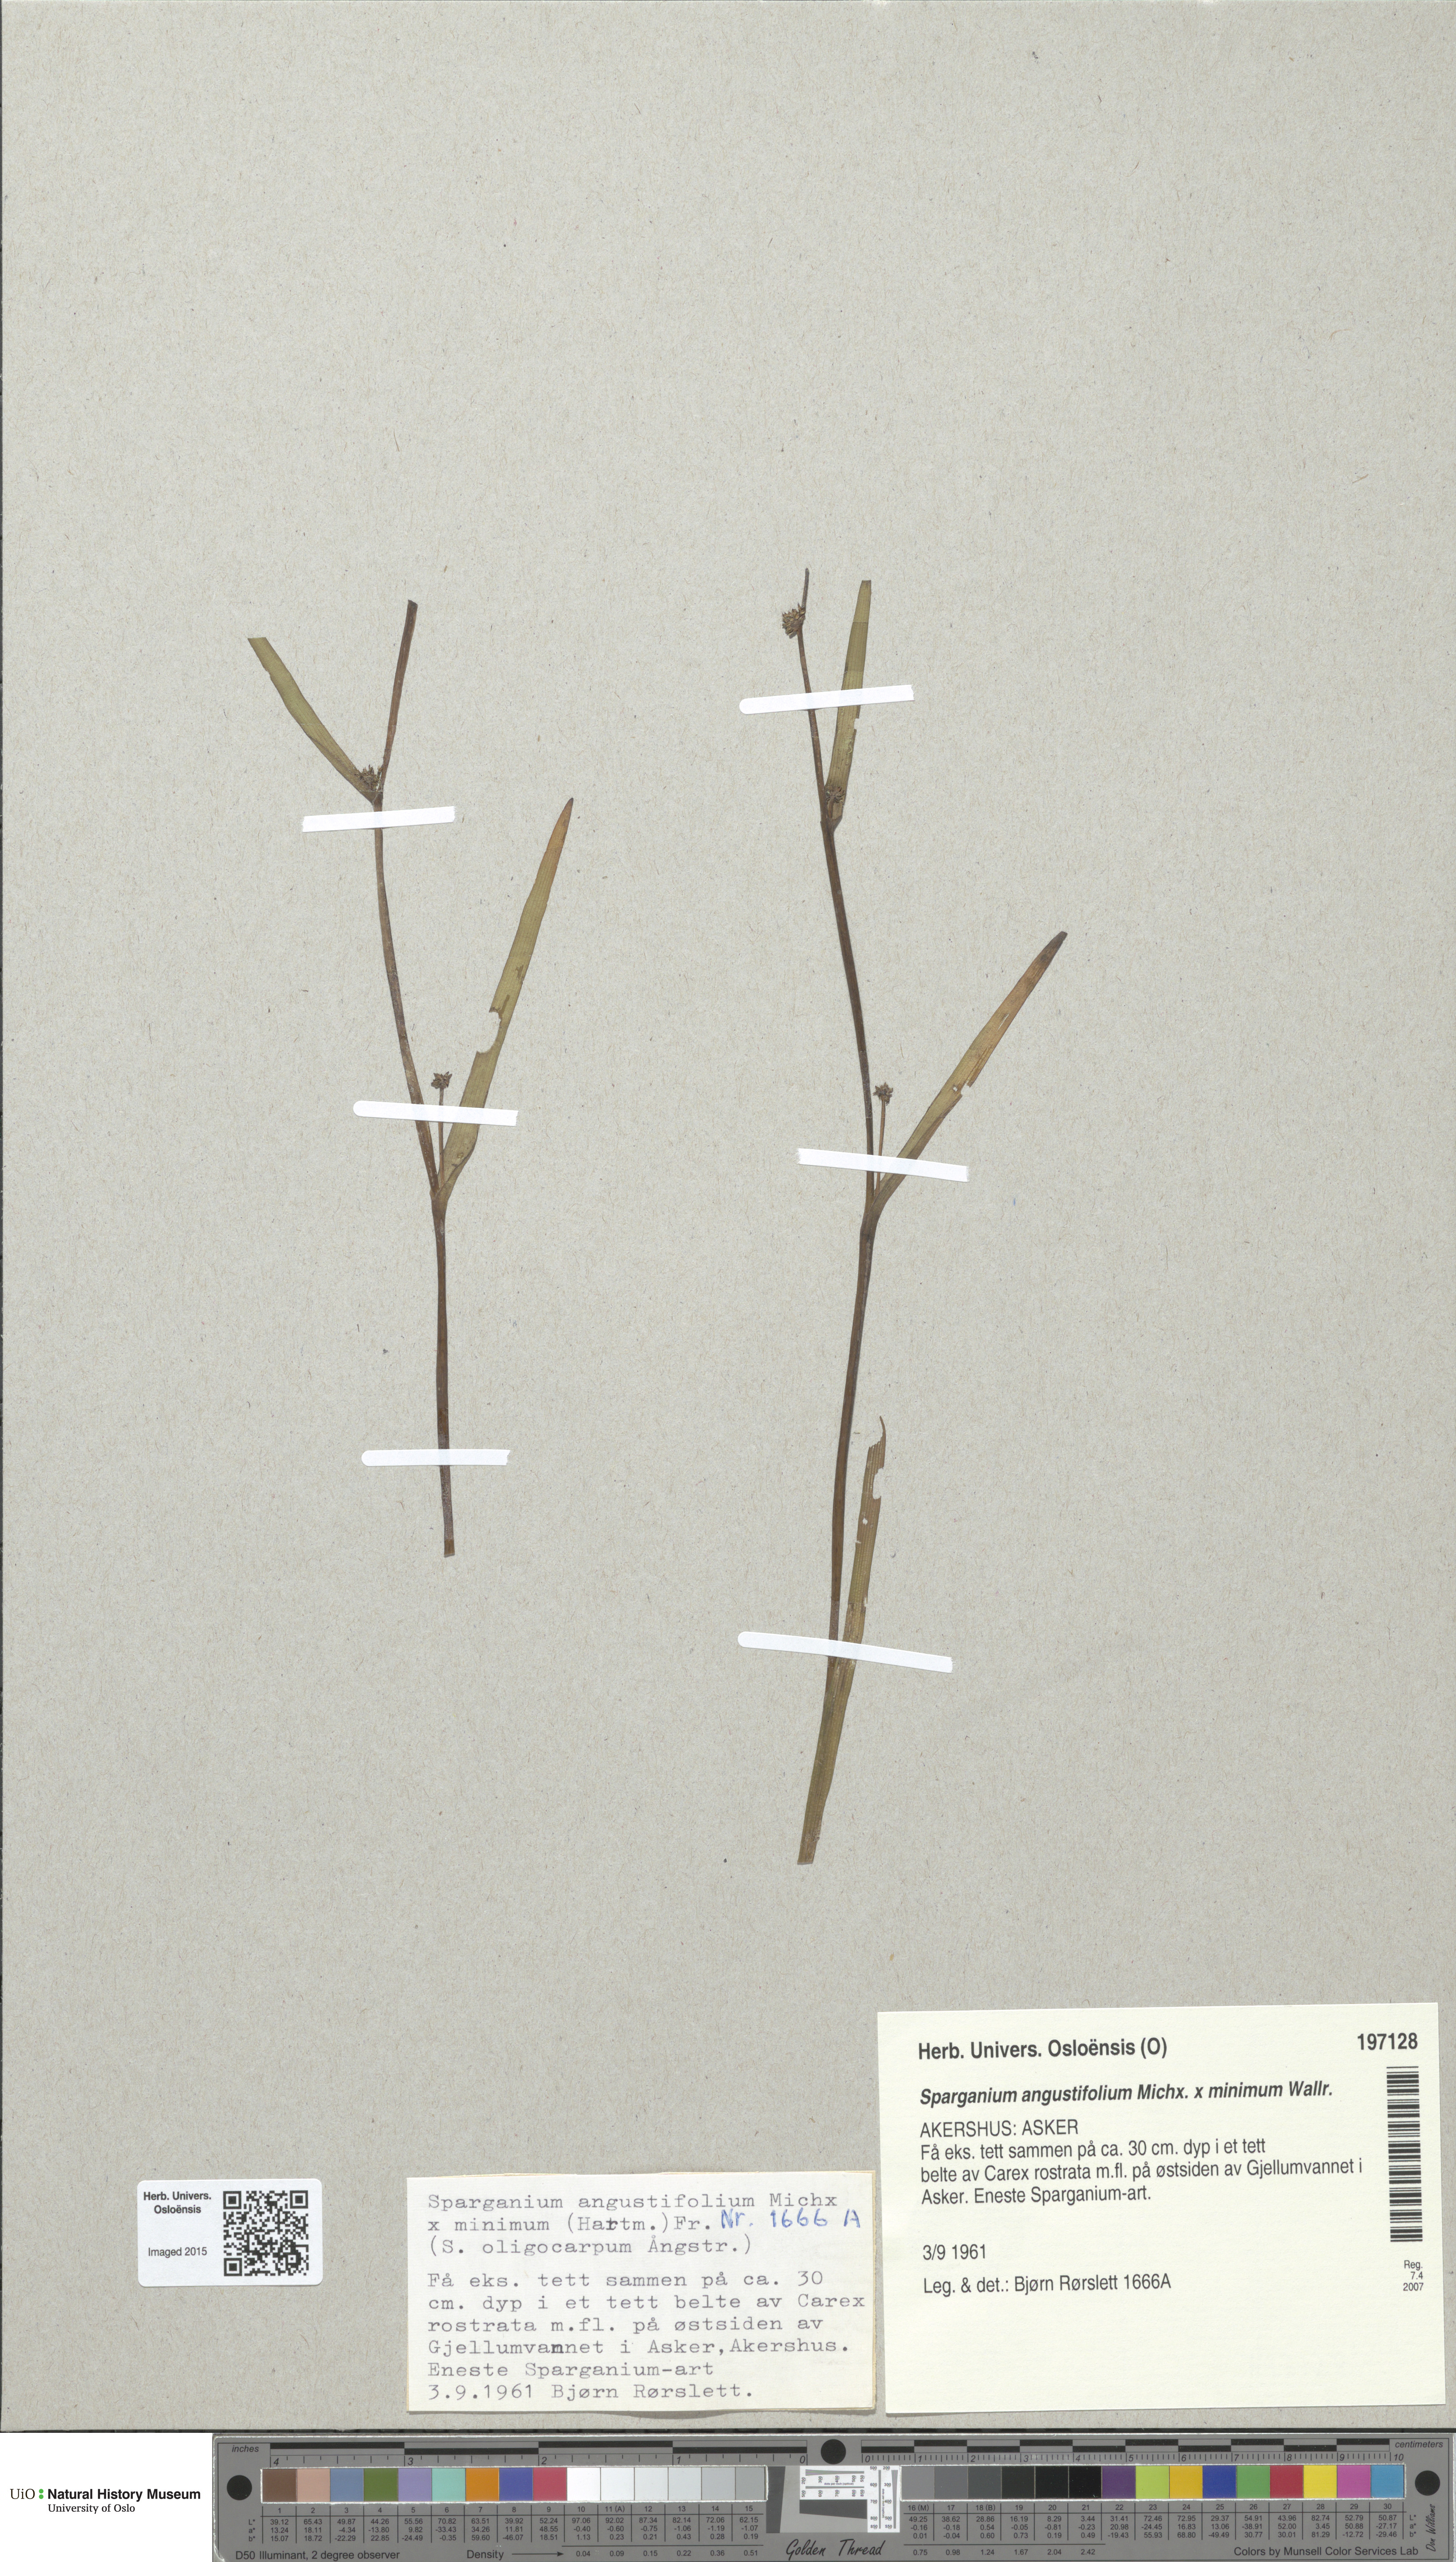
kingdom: Plantae
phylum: Tracheophyta
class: Liliopsida
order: Poales
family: Typhaceae
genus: Sparganium
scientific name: Sparganium
